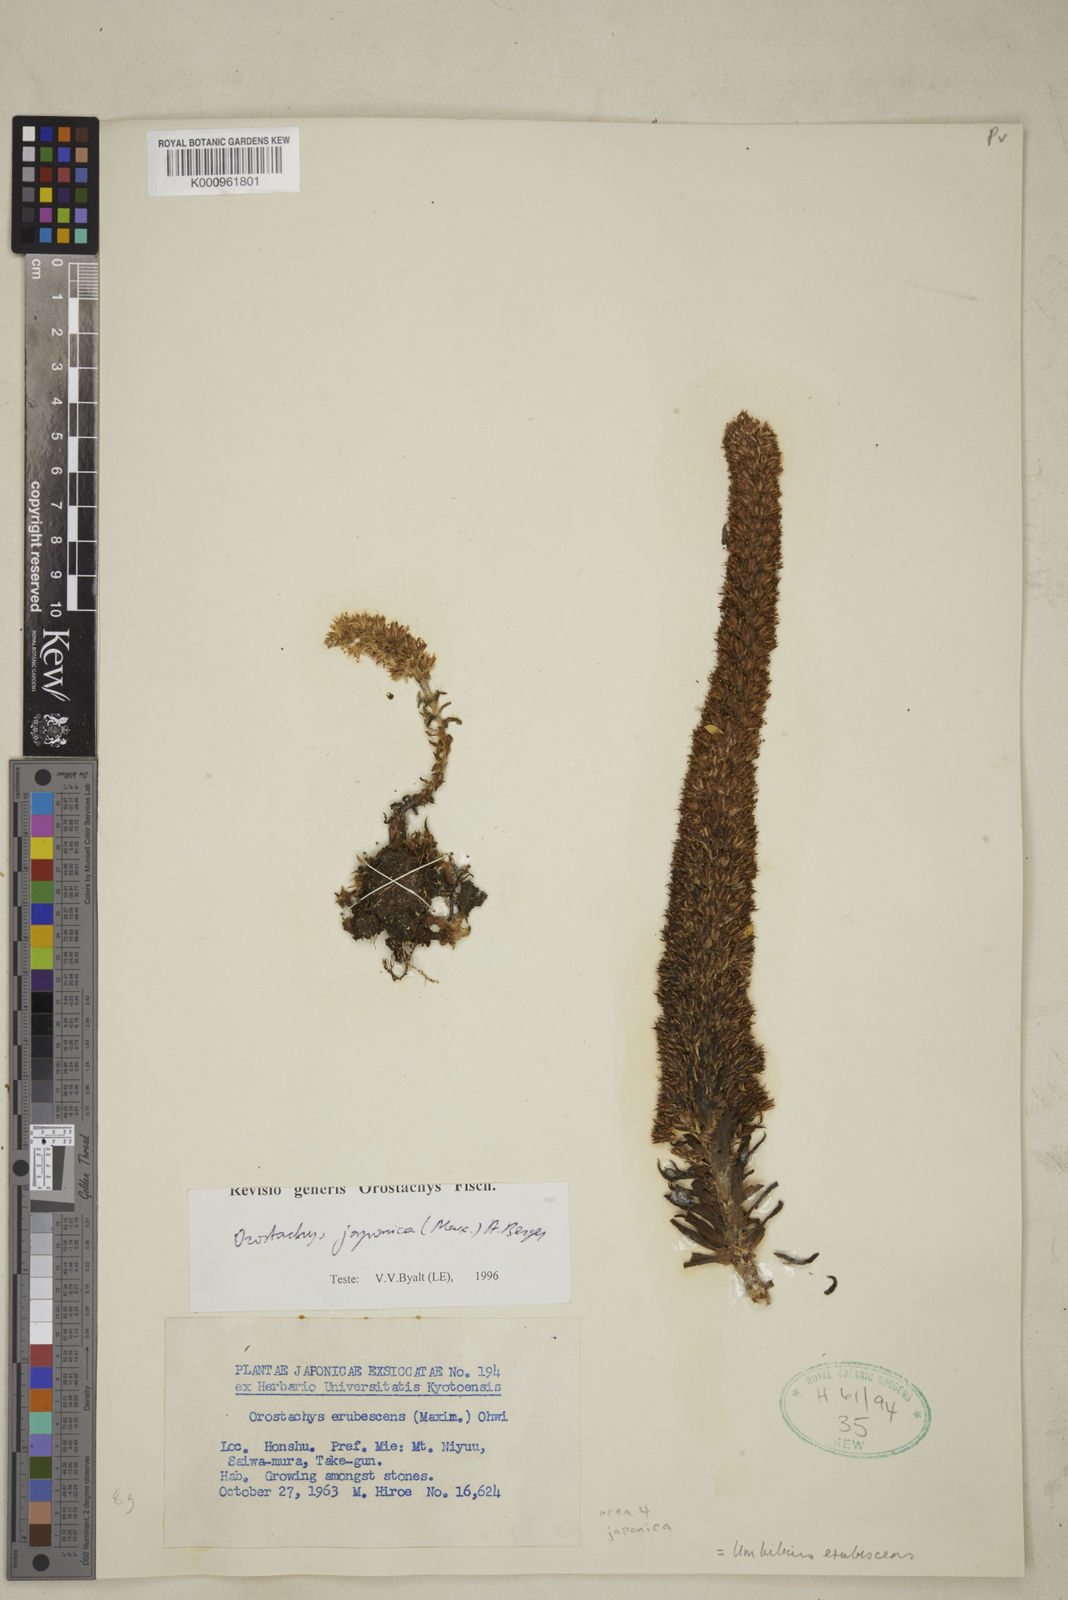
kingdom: Plantae
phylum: Tracheophyta
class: Magnoliopsida
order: Saxifragales
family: Crassulaceae
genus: Orostachys
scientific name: Orostachys japonica
